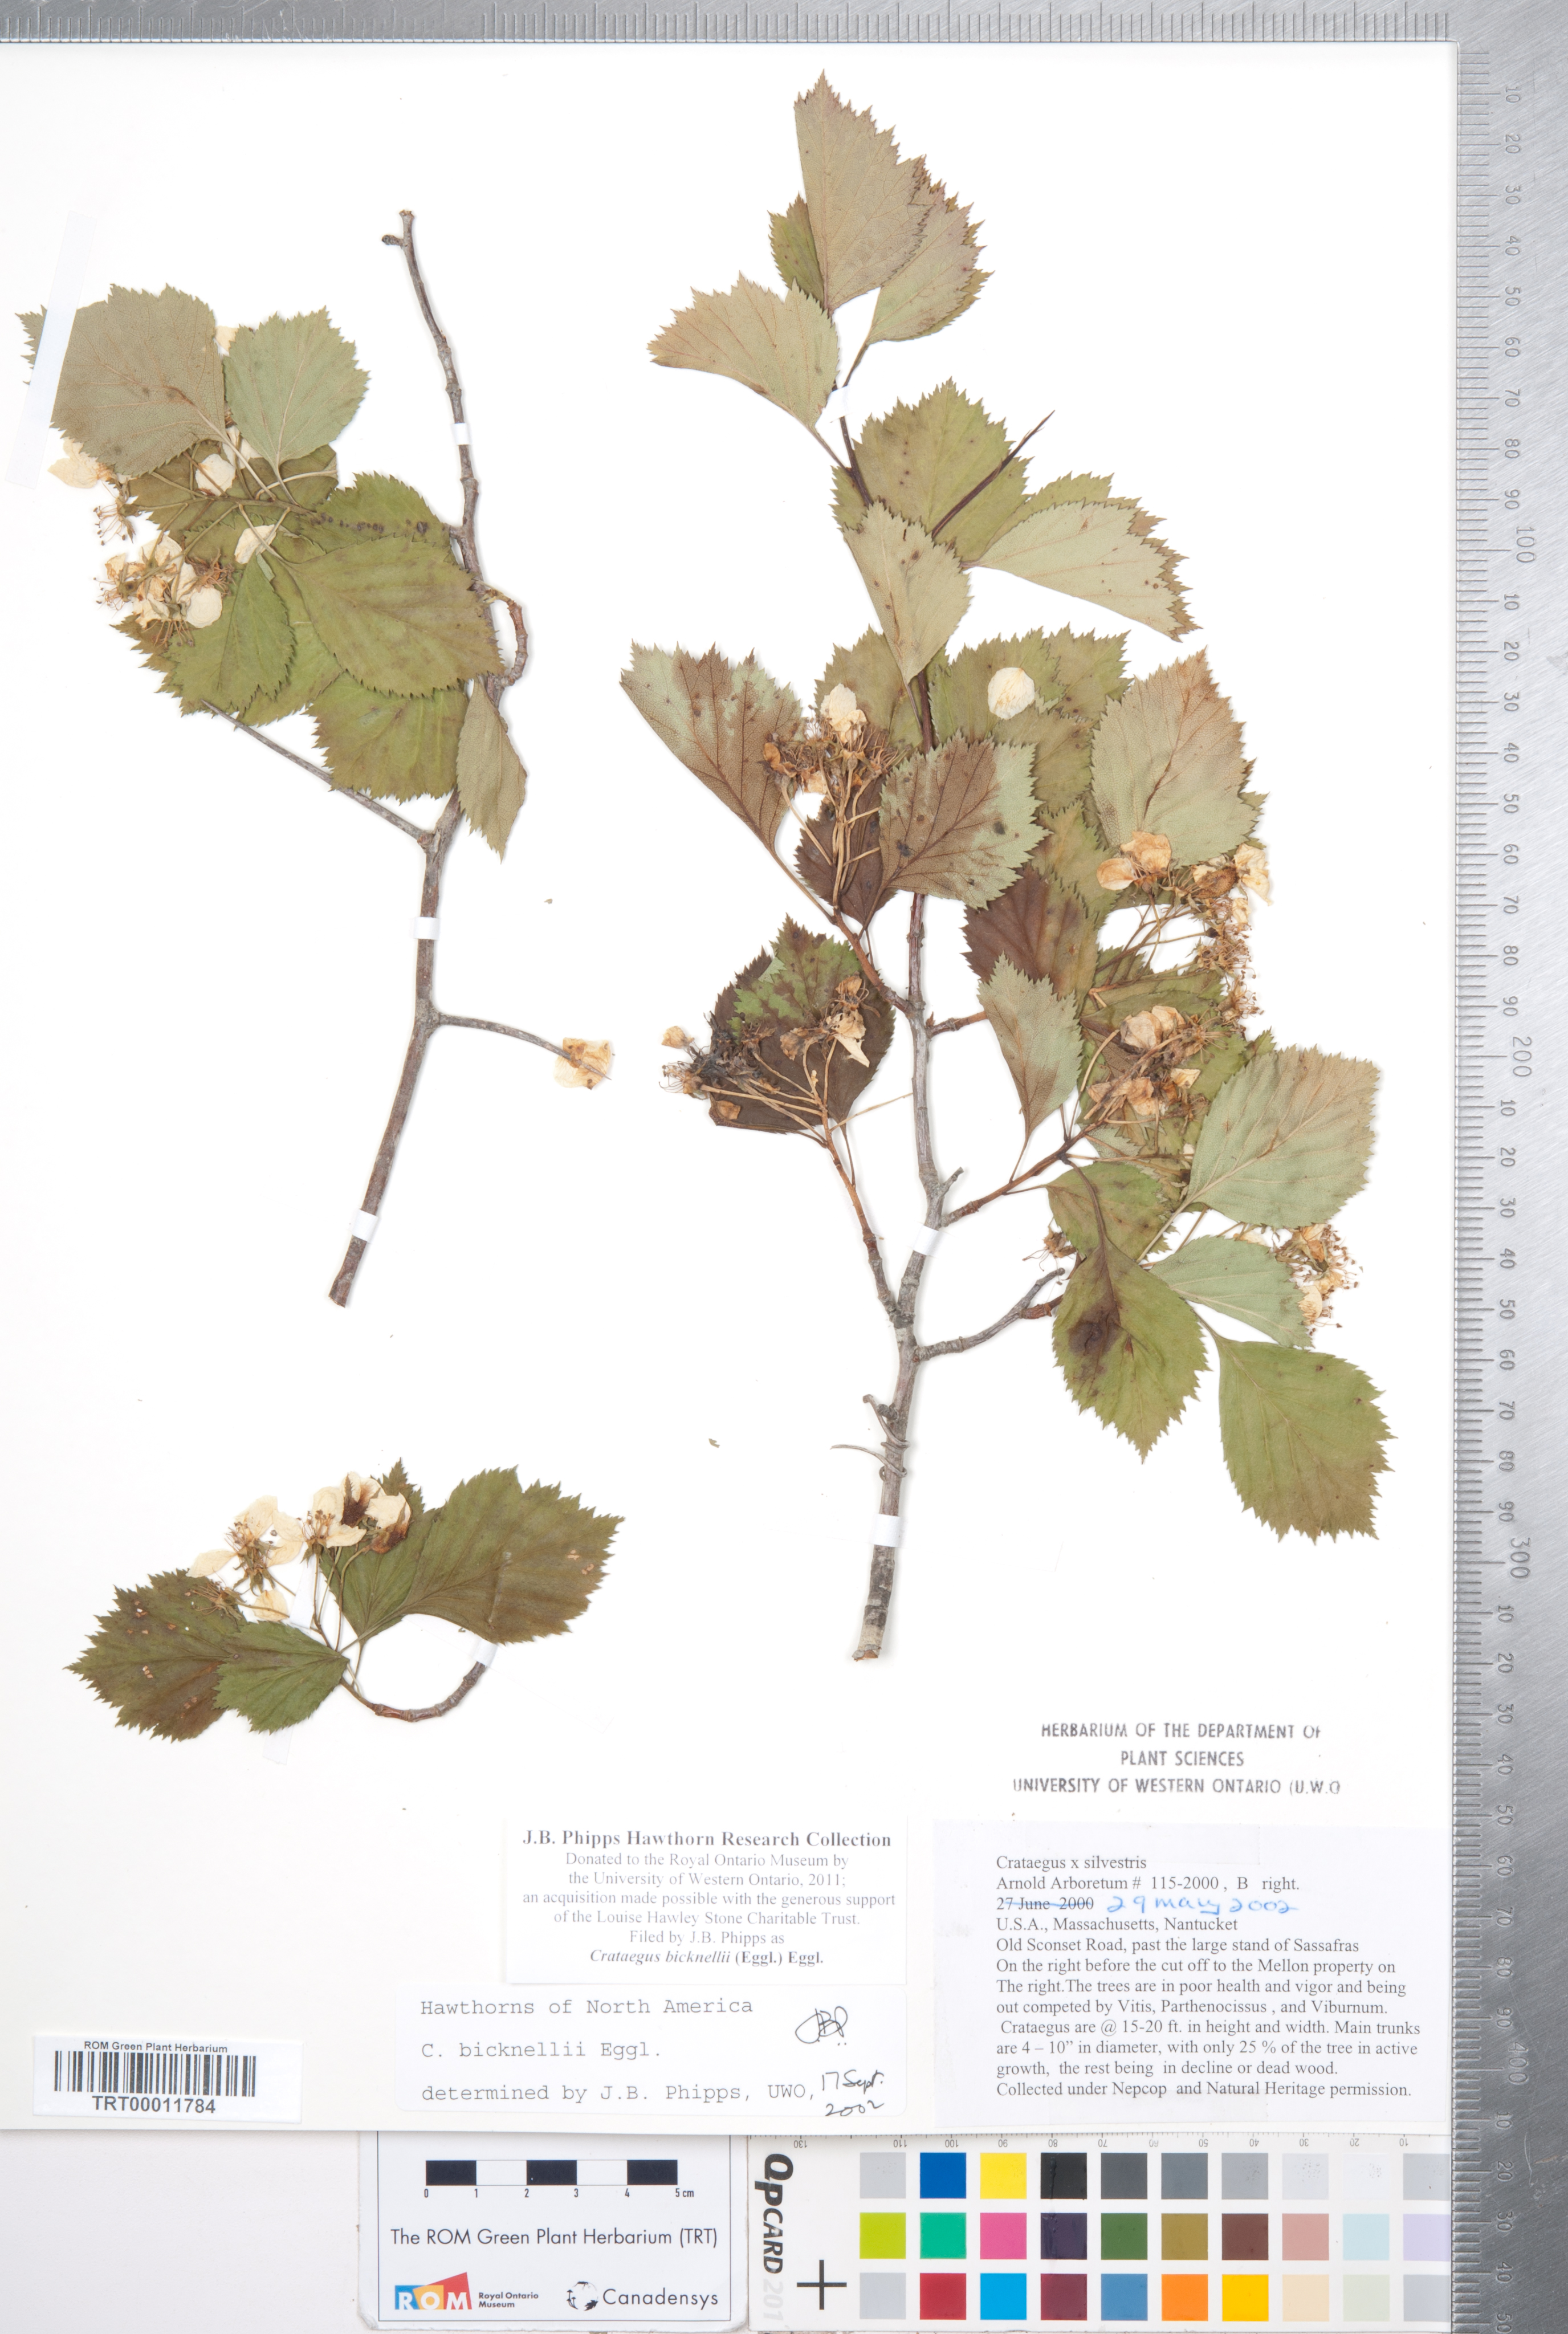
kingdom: Plantae
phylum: Tracheophyta
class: Magnoliopsida
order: Rosales
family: Rosaceae
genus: Crataegus
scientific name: Crataegus bicknellii
